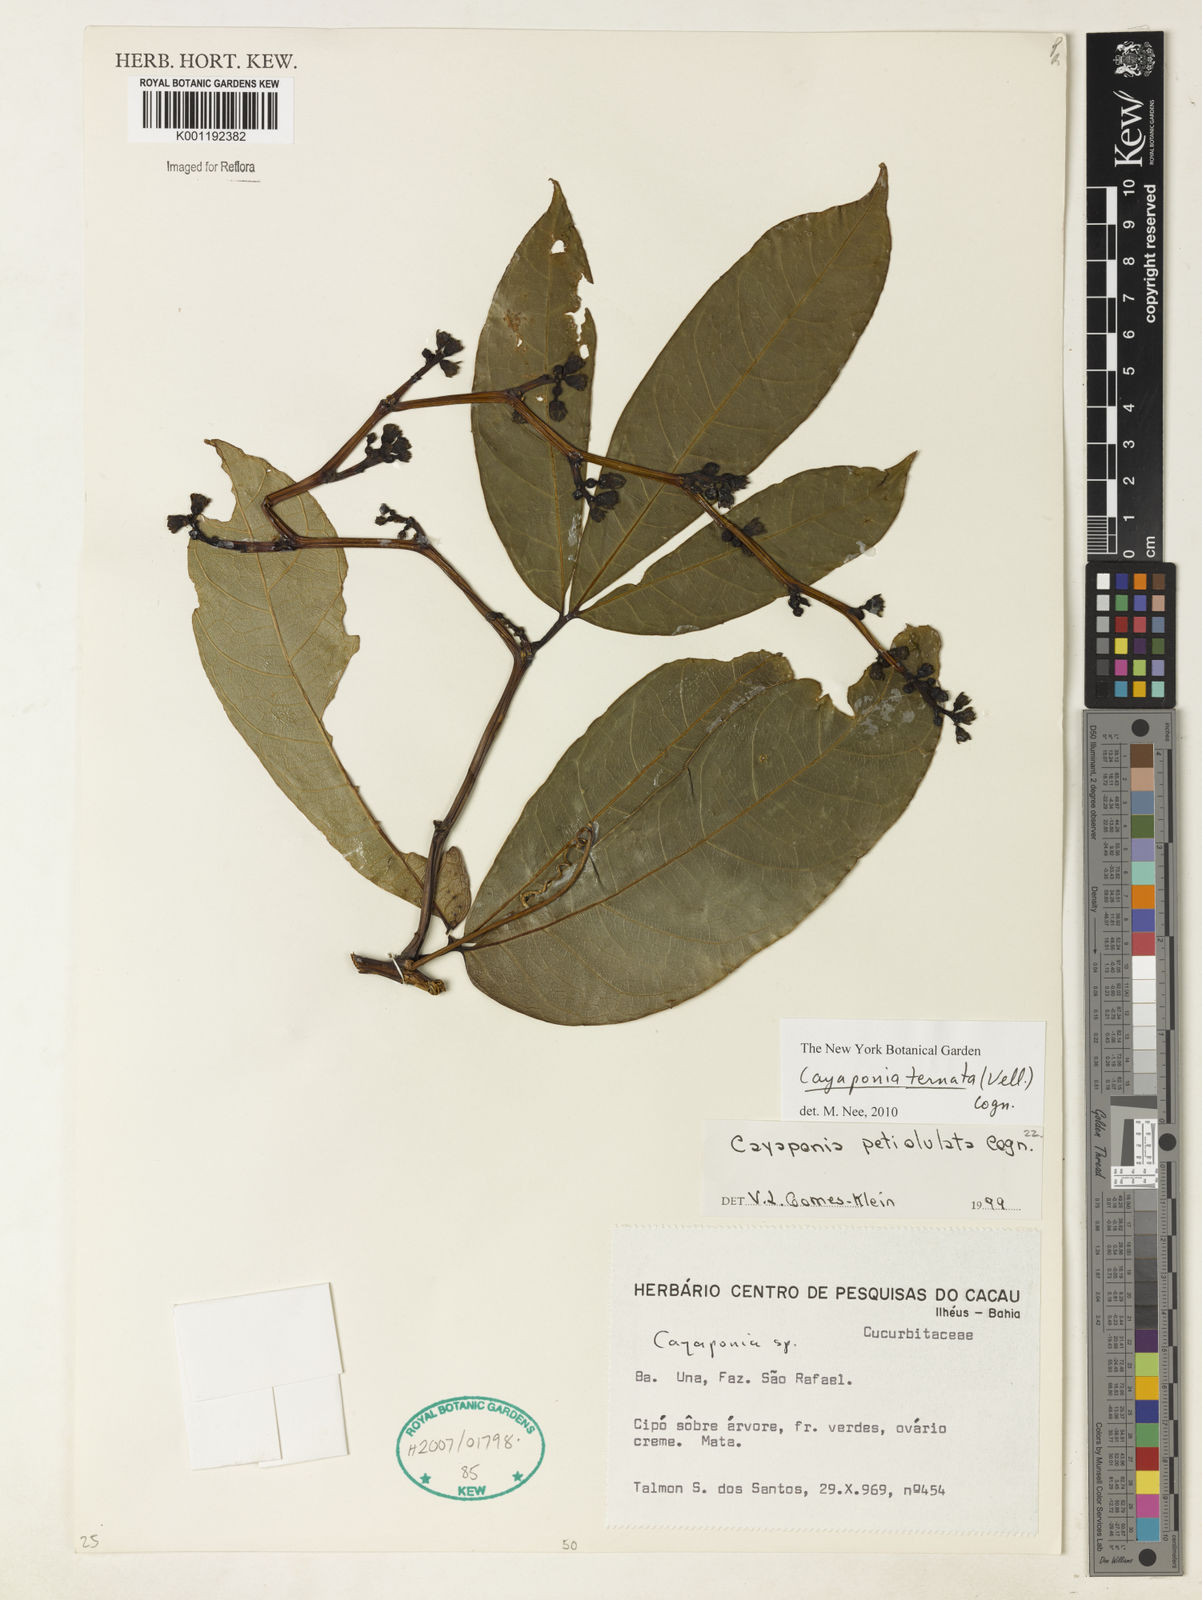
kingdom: Plantae
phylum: Tracheophyta
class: Magnoliopsida
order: Cucurbitales
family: Cucurbitaceae
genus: Cayaponia
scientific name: Cayaponia ternata
